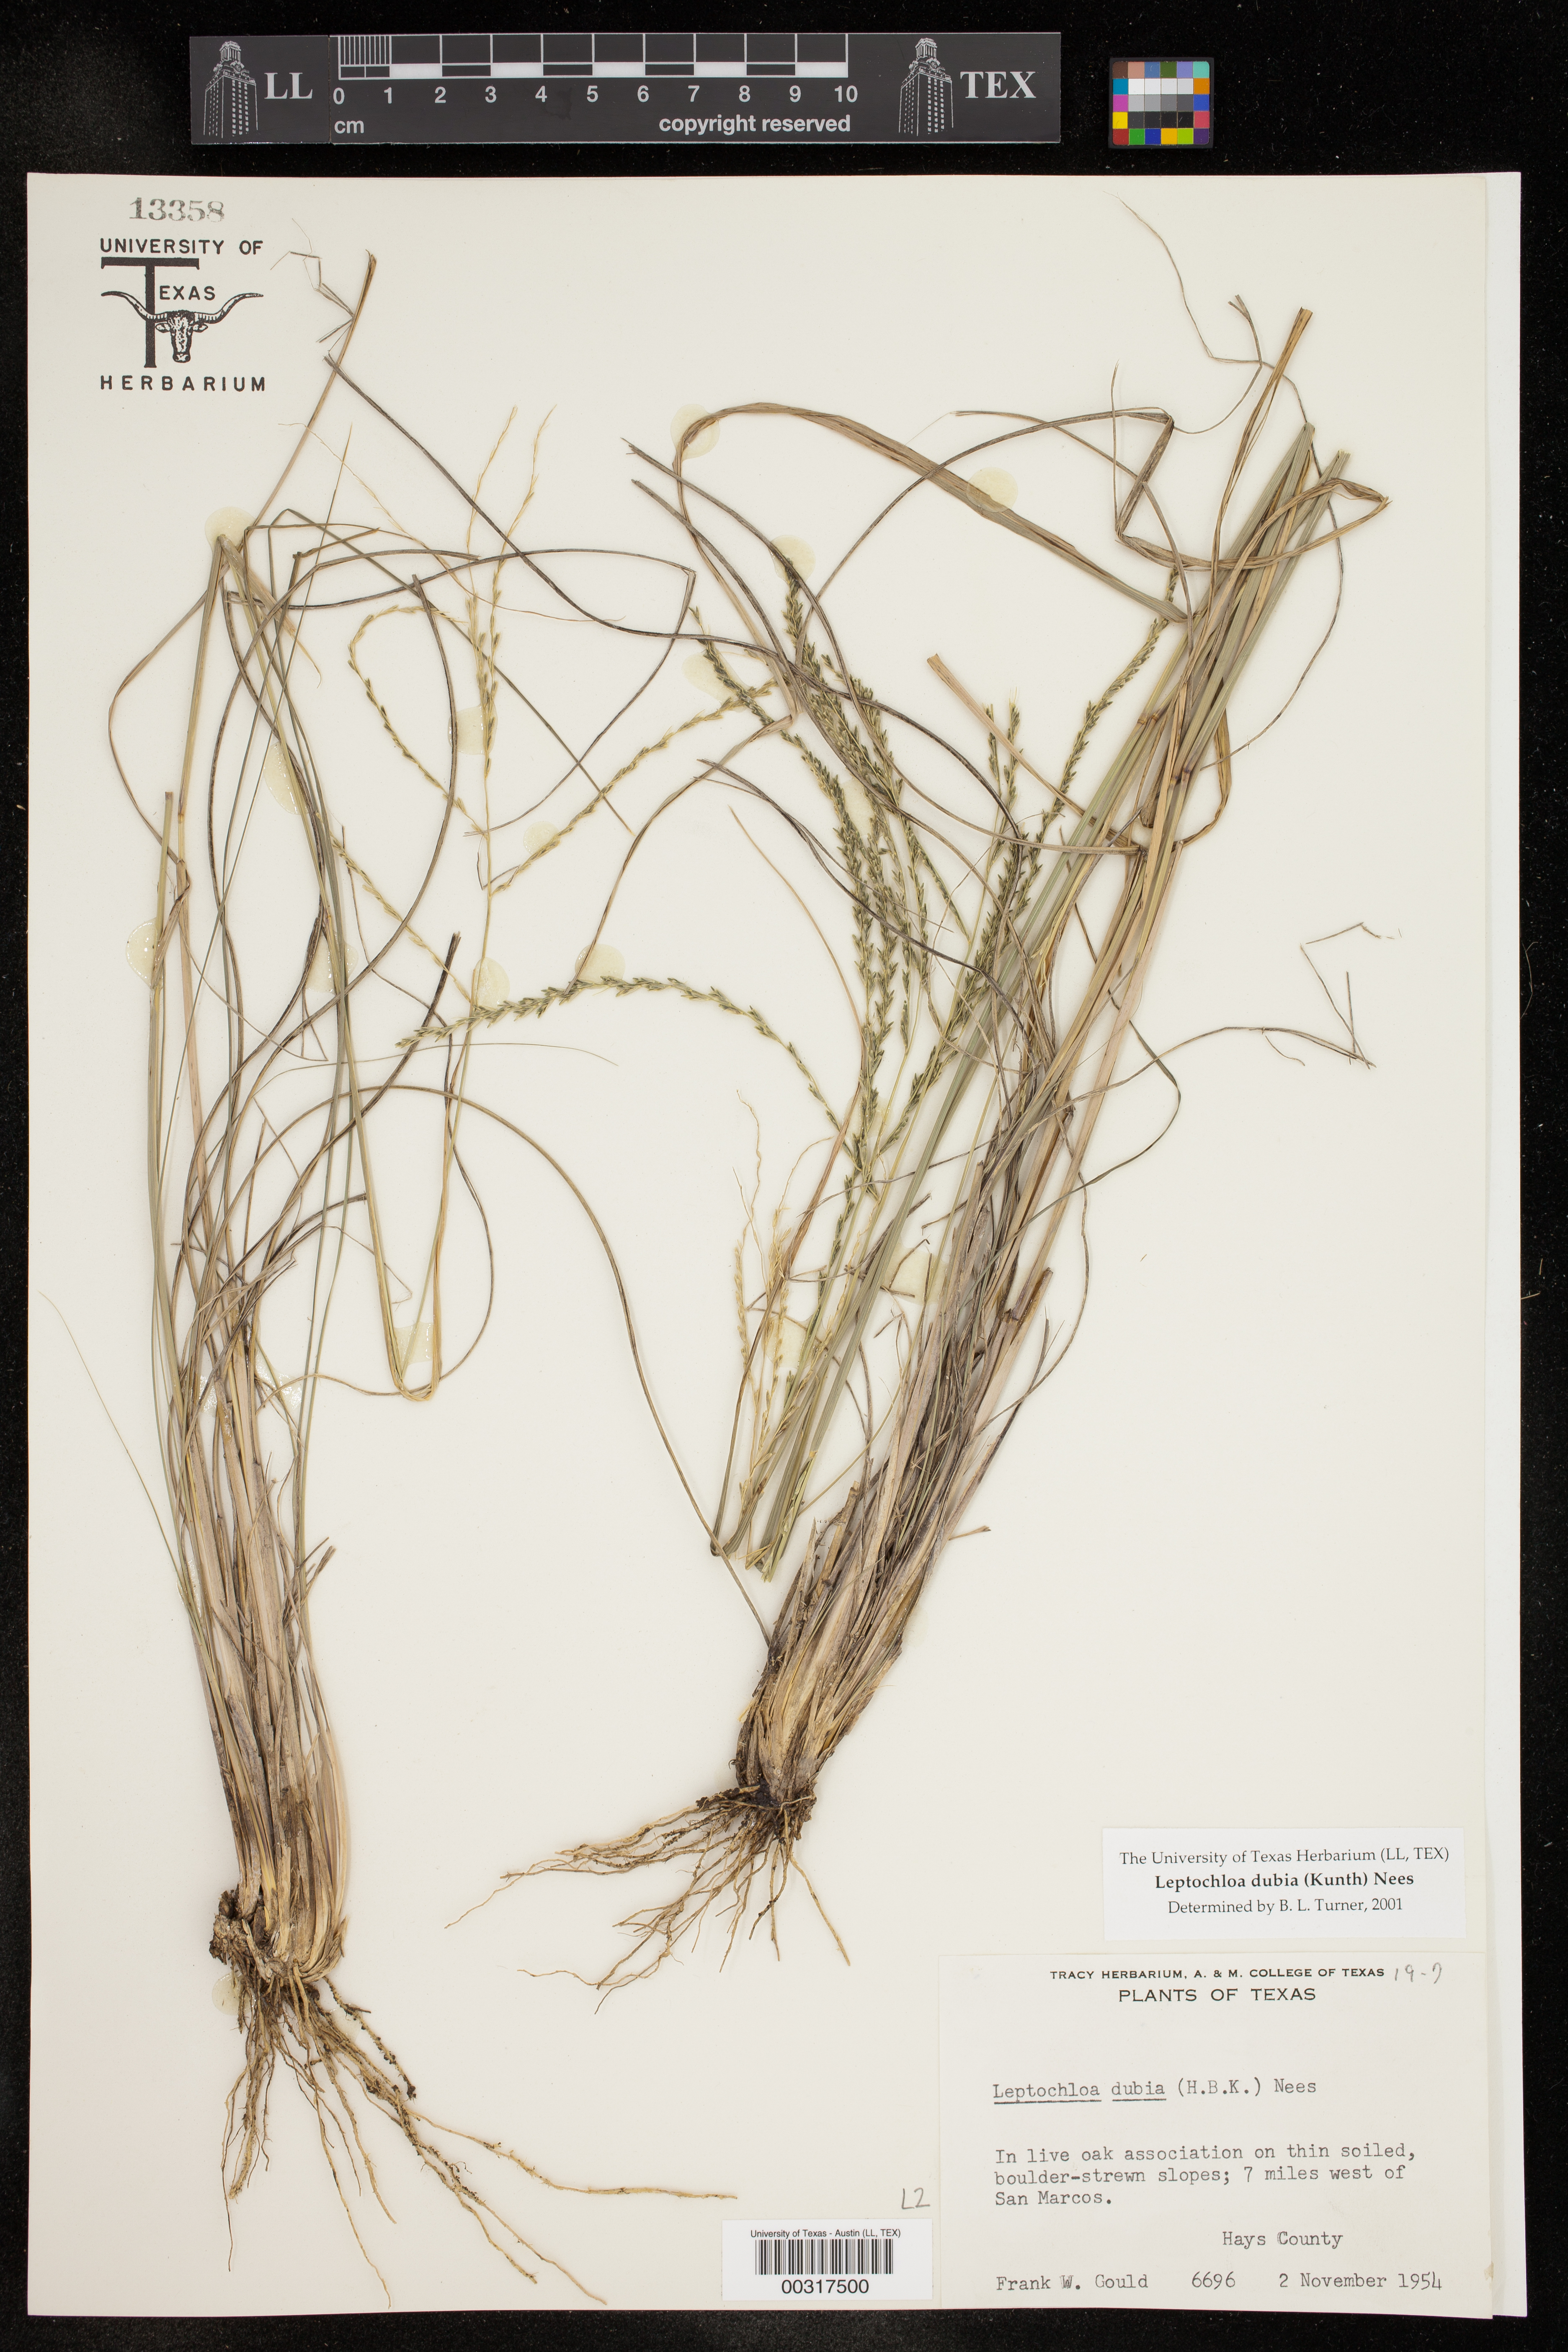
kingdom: Plantae
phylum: Tracheophyta
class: Liliopsida
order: Poales
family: Poaceae
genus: Disakisperma
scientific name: Disakisperma dubium
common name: Green sprangletop
